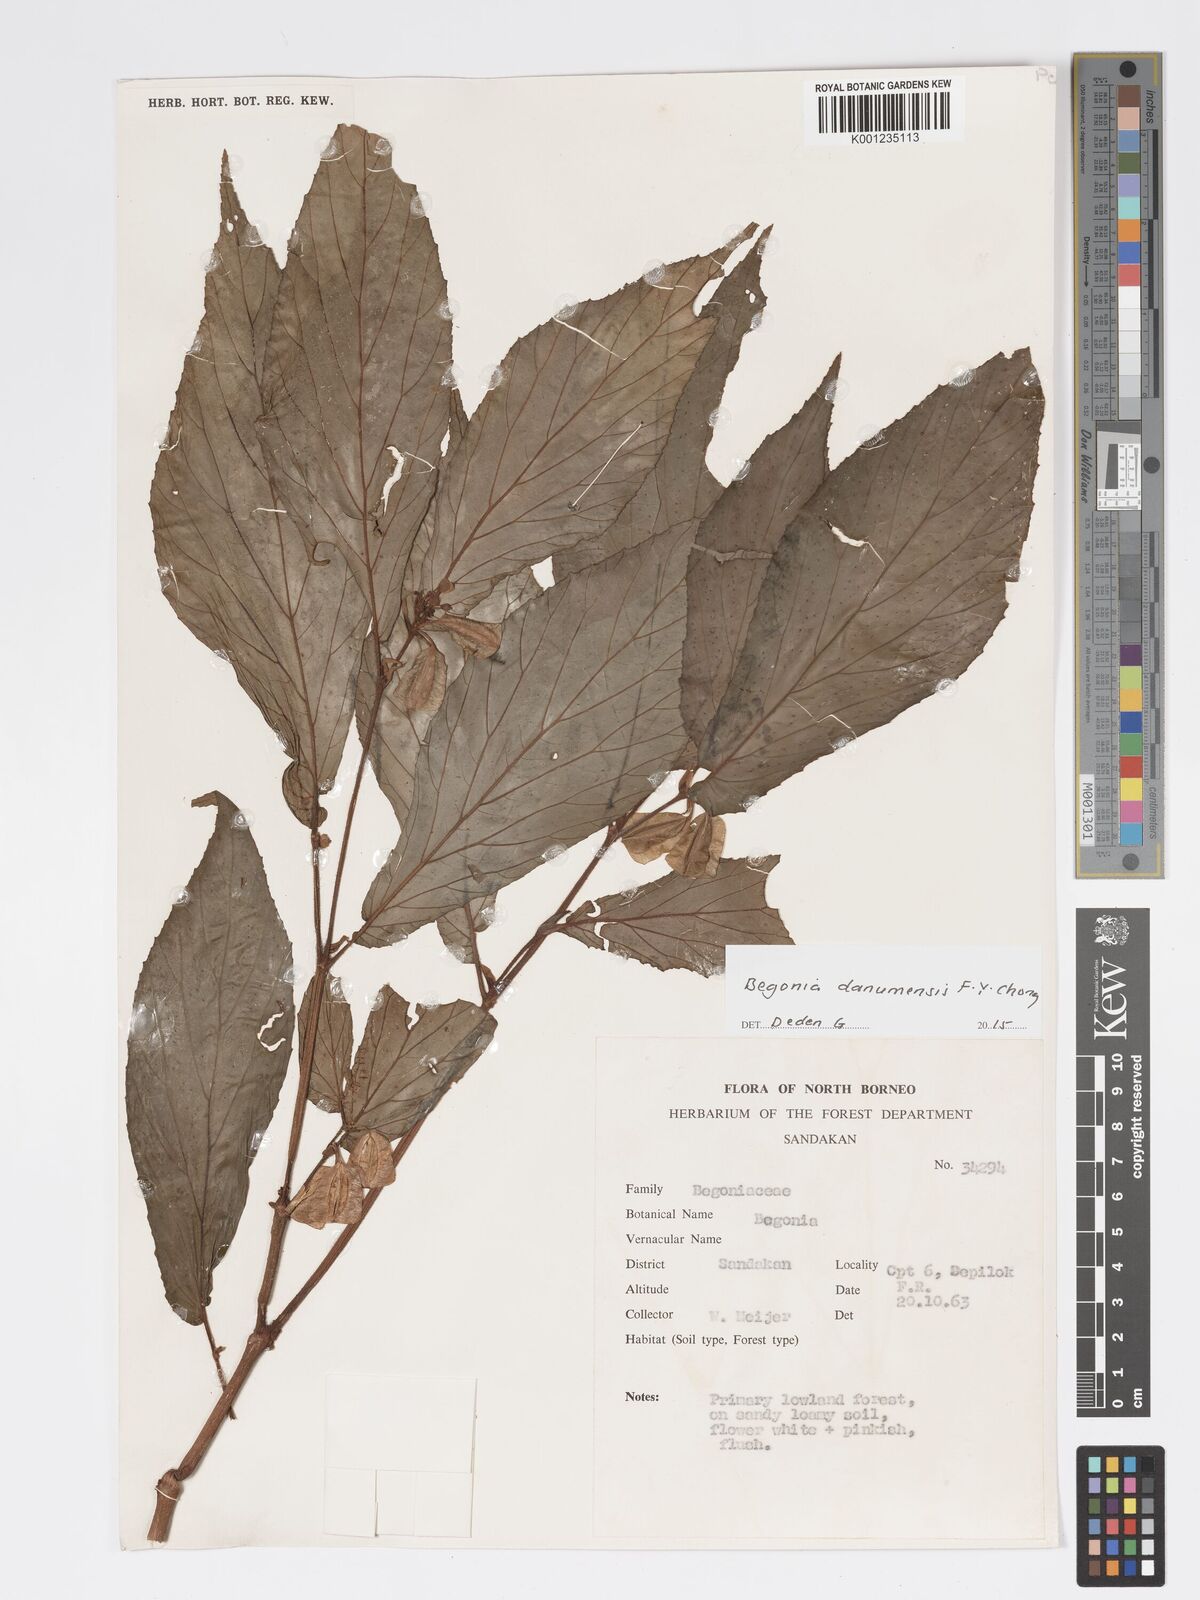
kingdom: Plantae
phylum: Tracheophyta
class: Magnoliopsida
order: Cucurbitales
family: Begoniaceae
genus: Begonia
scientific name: Begonia danumensis
